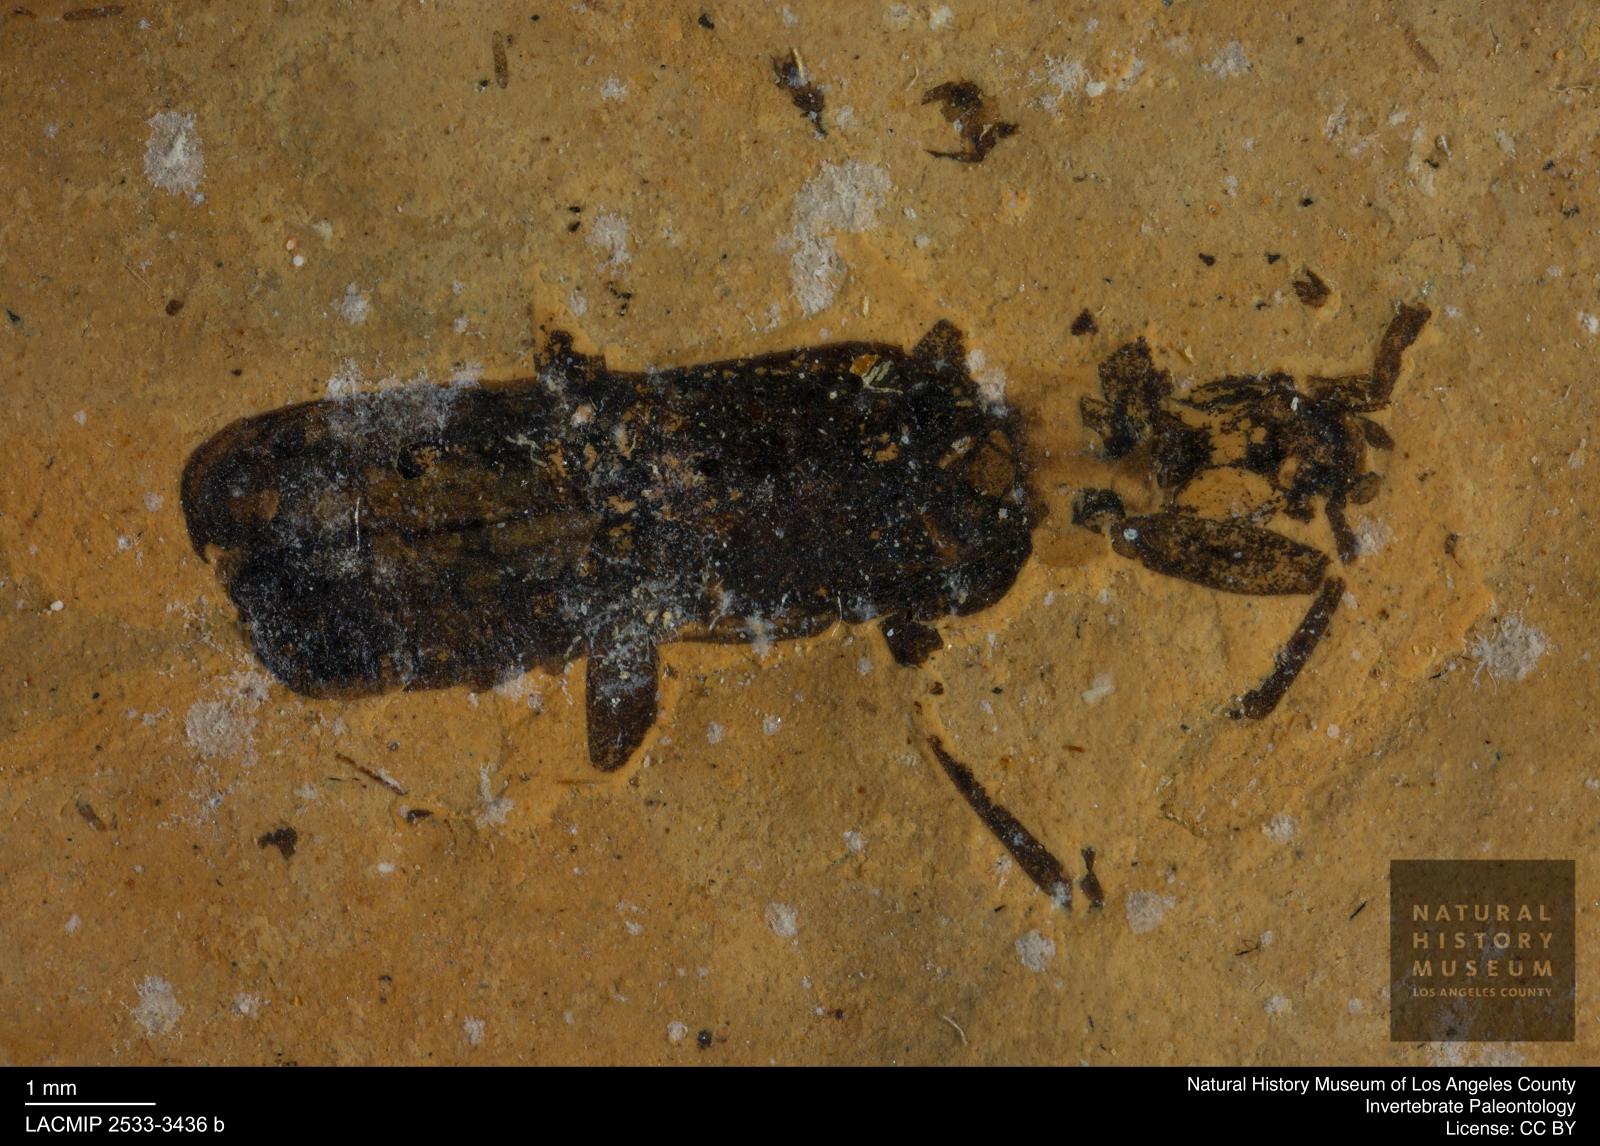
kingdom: Animalia
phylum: Arthropoda
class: Insecta
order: Coleoptera
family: Cantharidae
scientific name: Cantharidae
